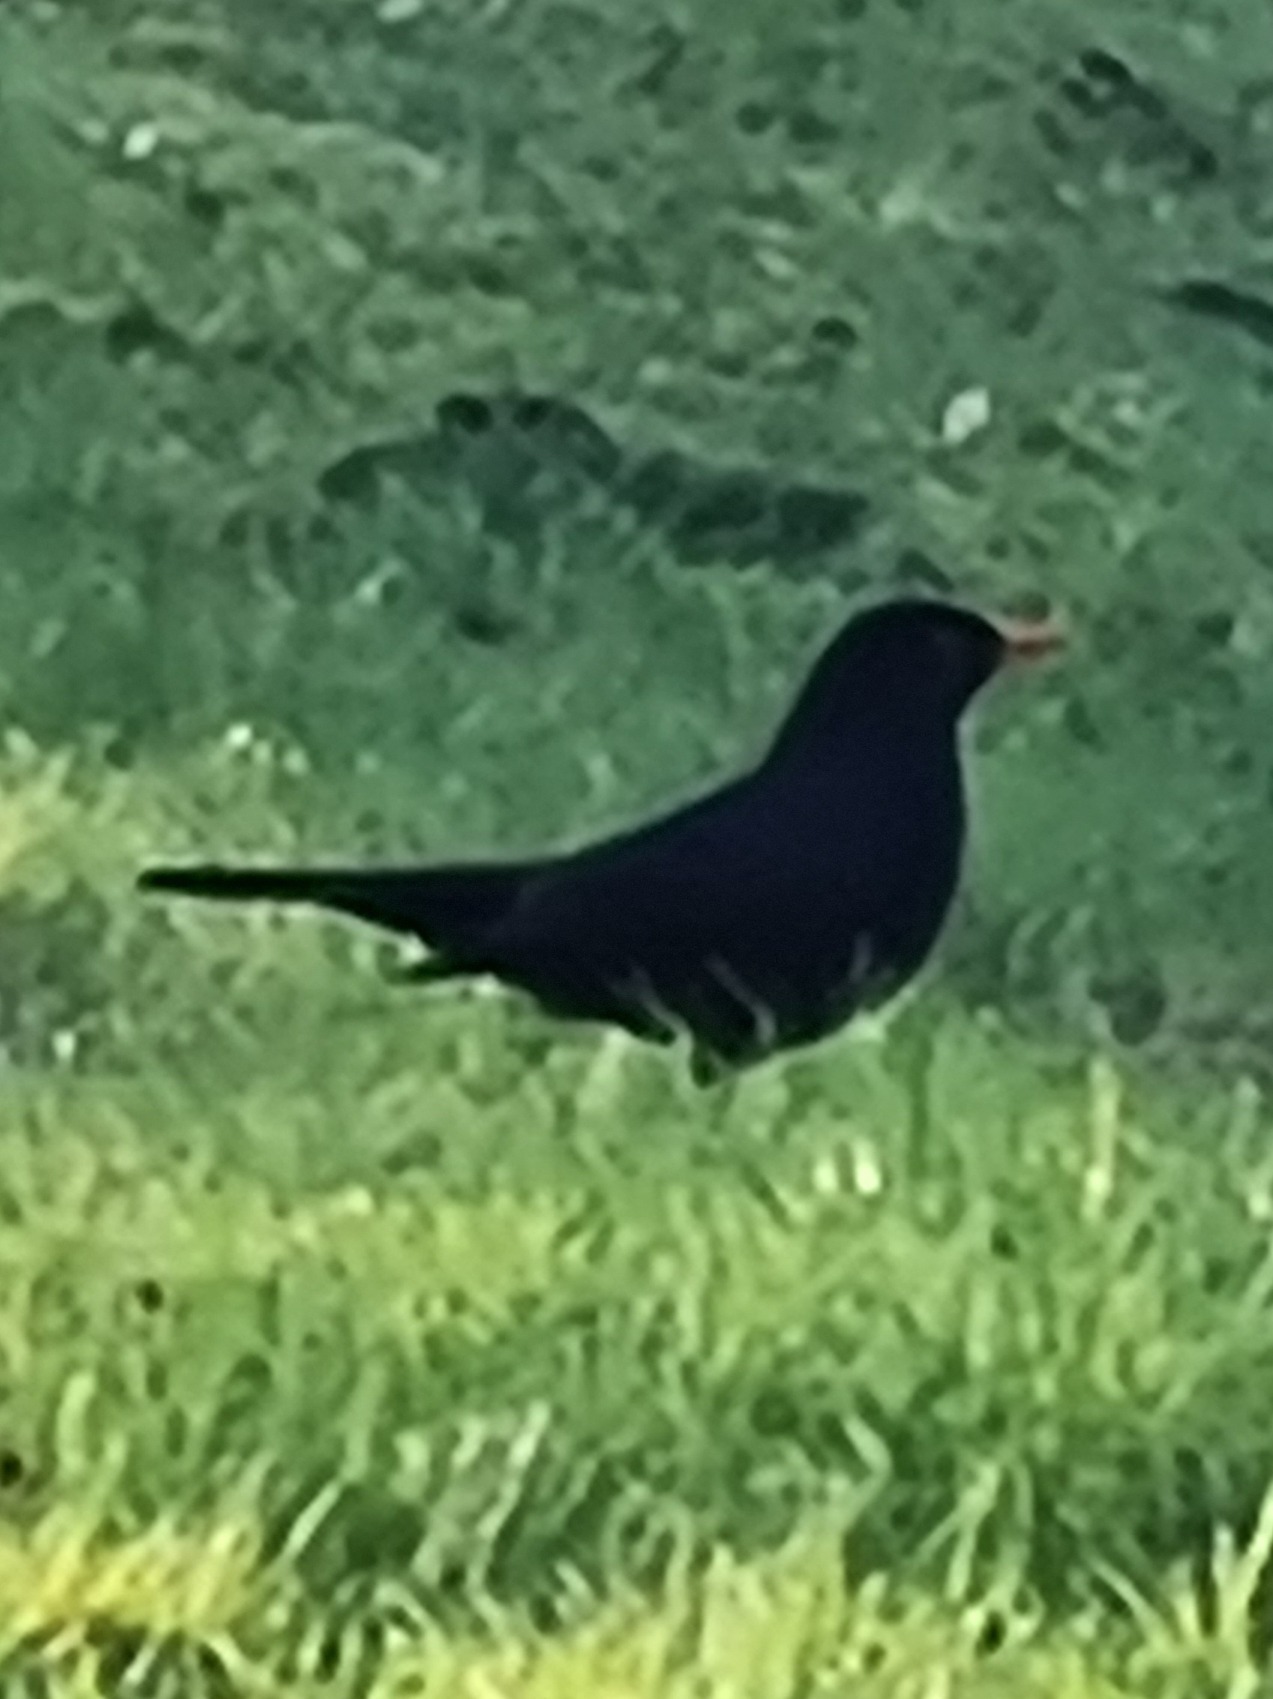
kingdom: Animalia
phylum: Chordata
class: Aves
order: Passeriformes
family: Turdidae
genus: Turdus
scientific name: Turdus merula
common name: Solsort
